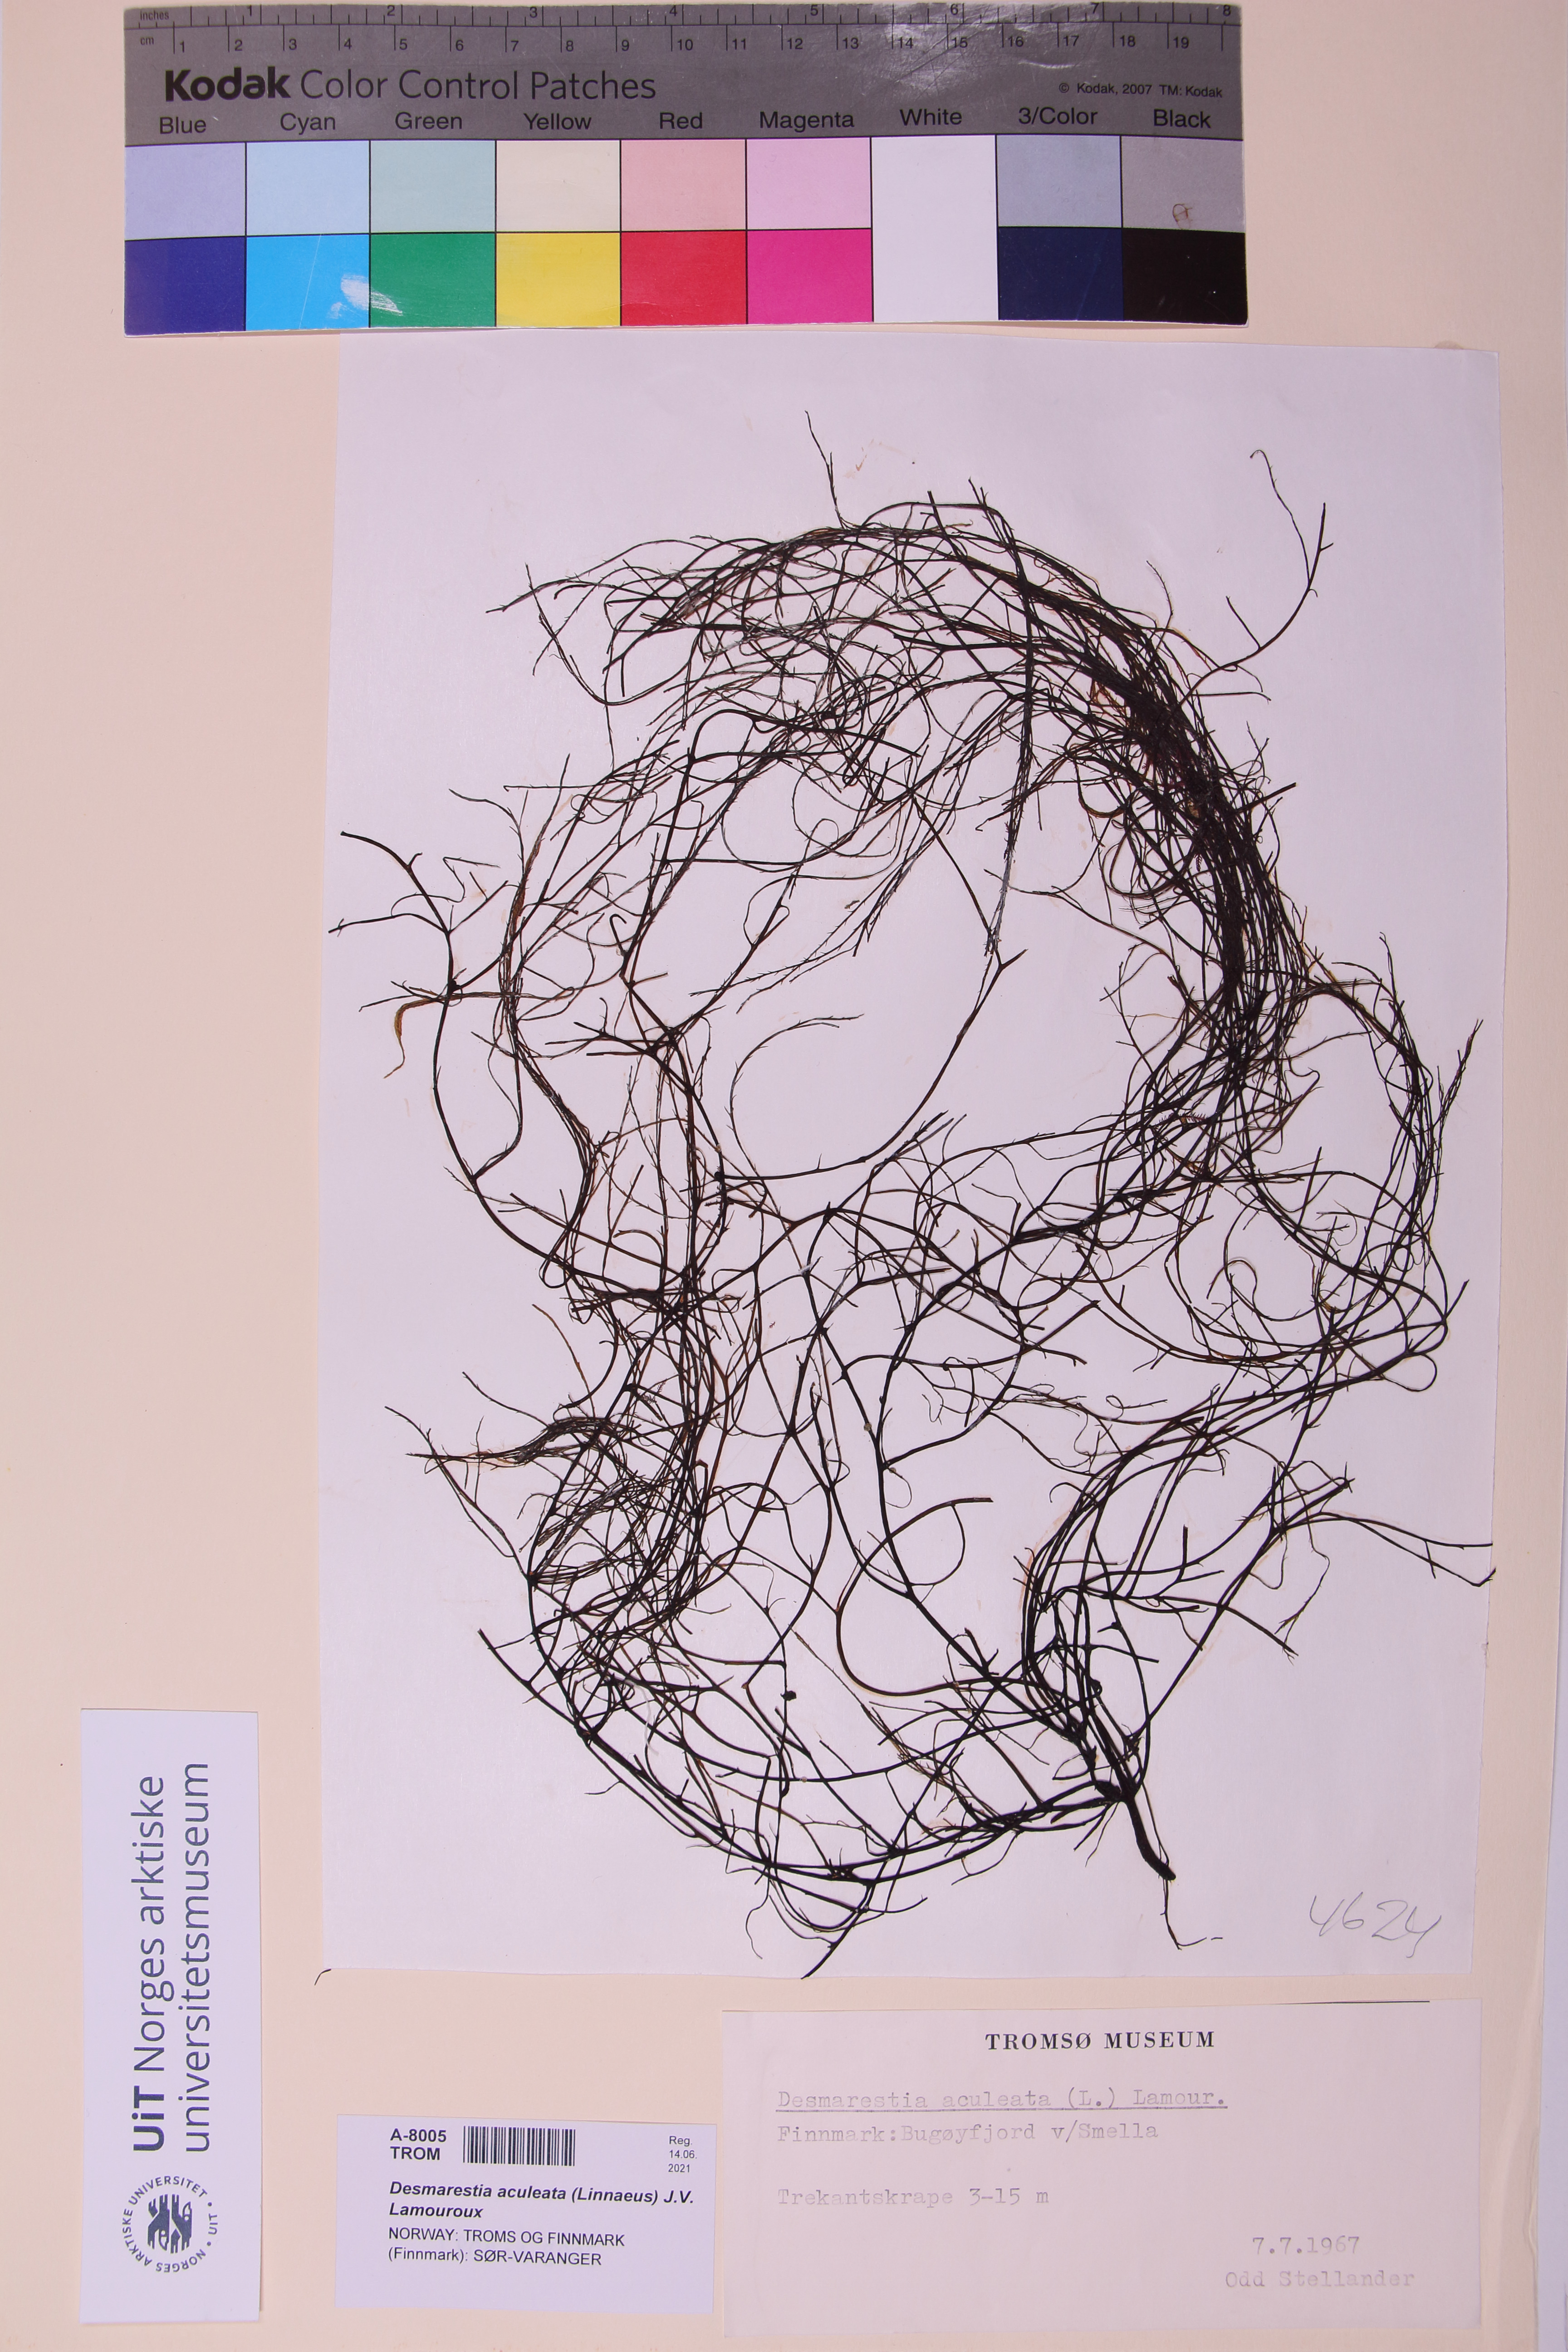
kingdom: Chromista
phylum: Ochrophyta
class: Phaeophyceae
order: Desmarestiales
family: Desmarestiaceae
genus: Desmarestia
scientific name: Desmarestia aculeata
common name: Witch's hair
